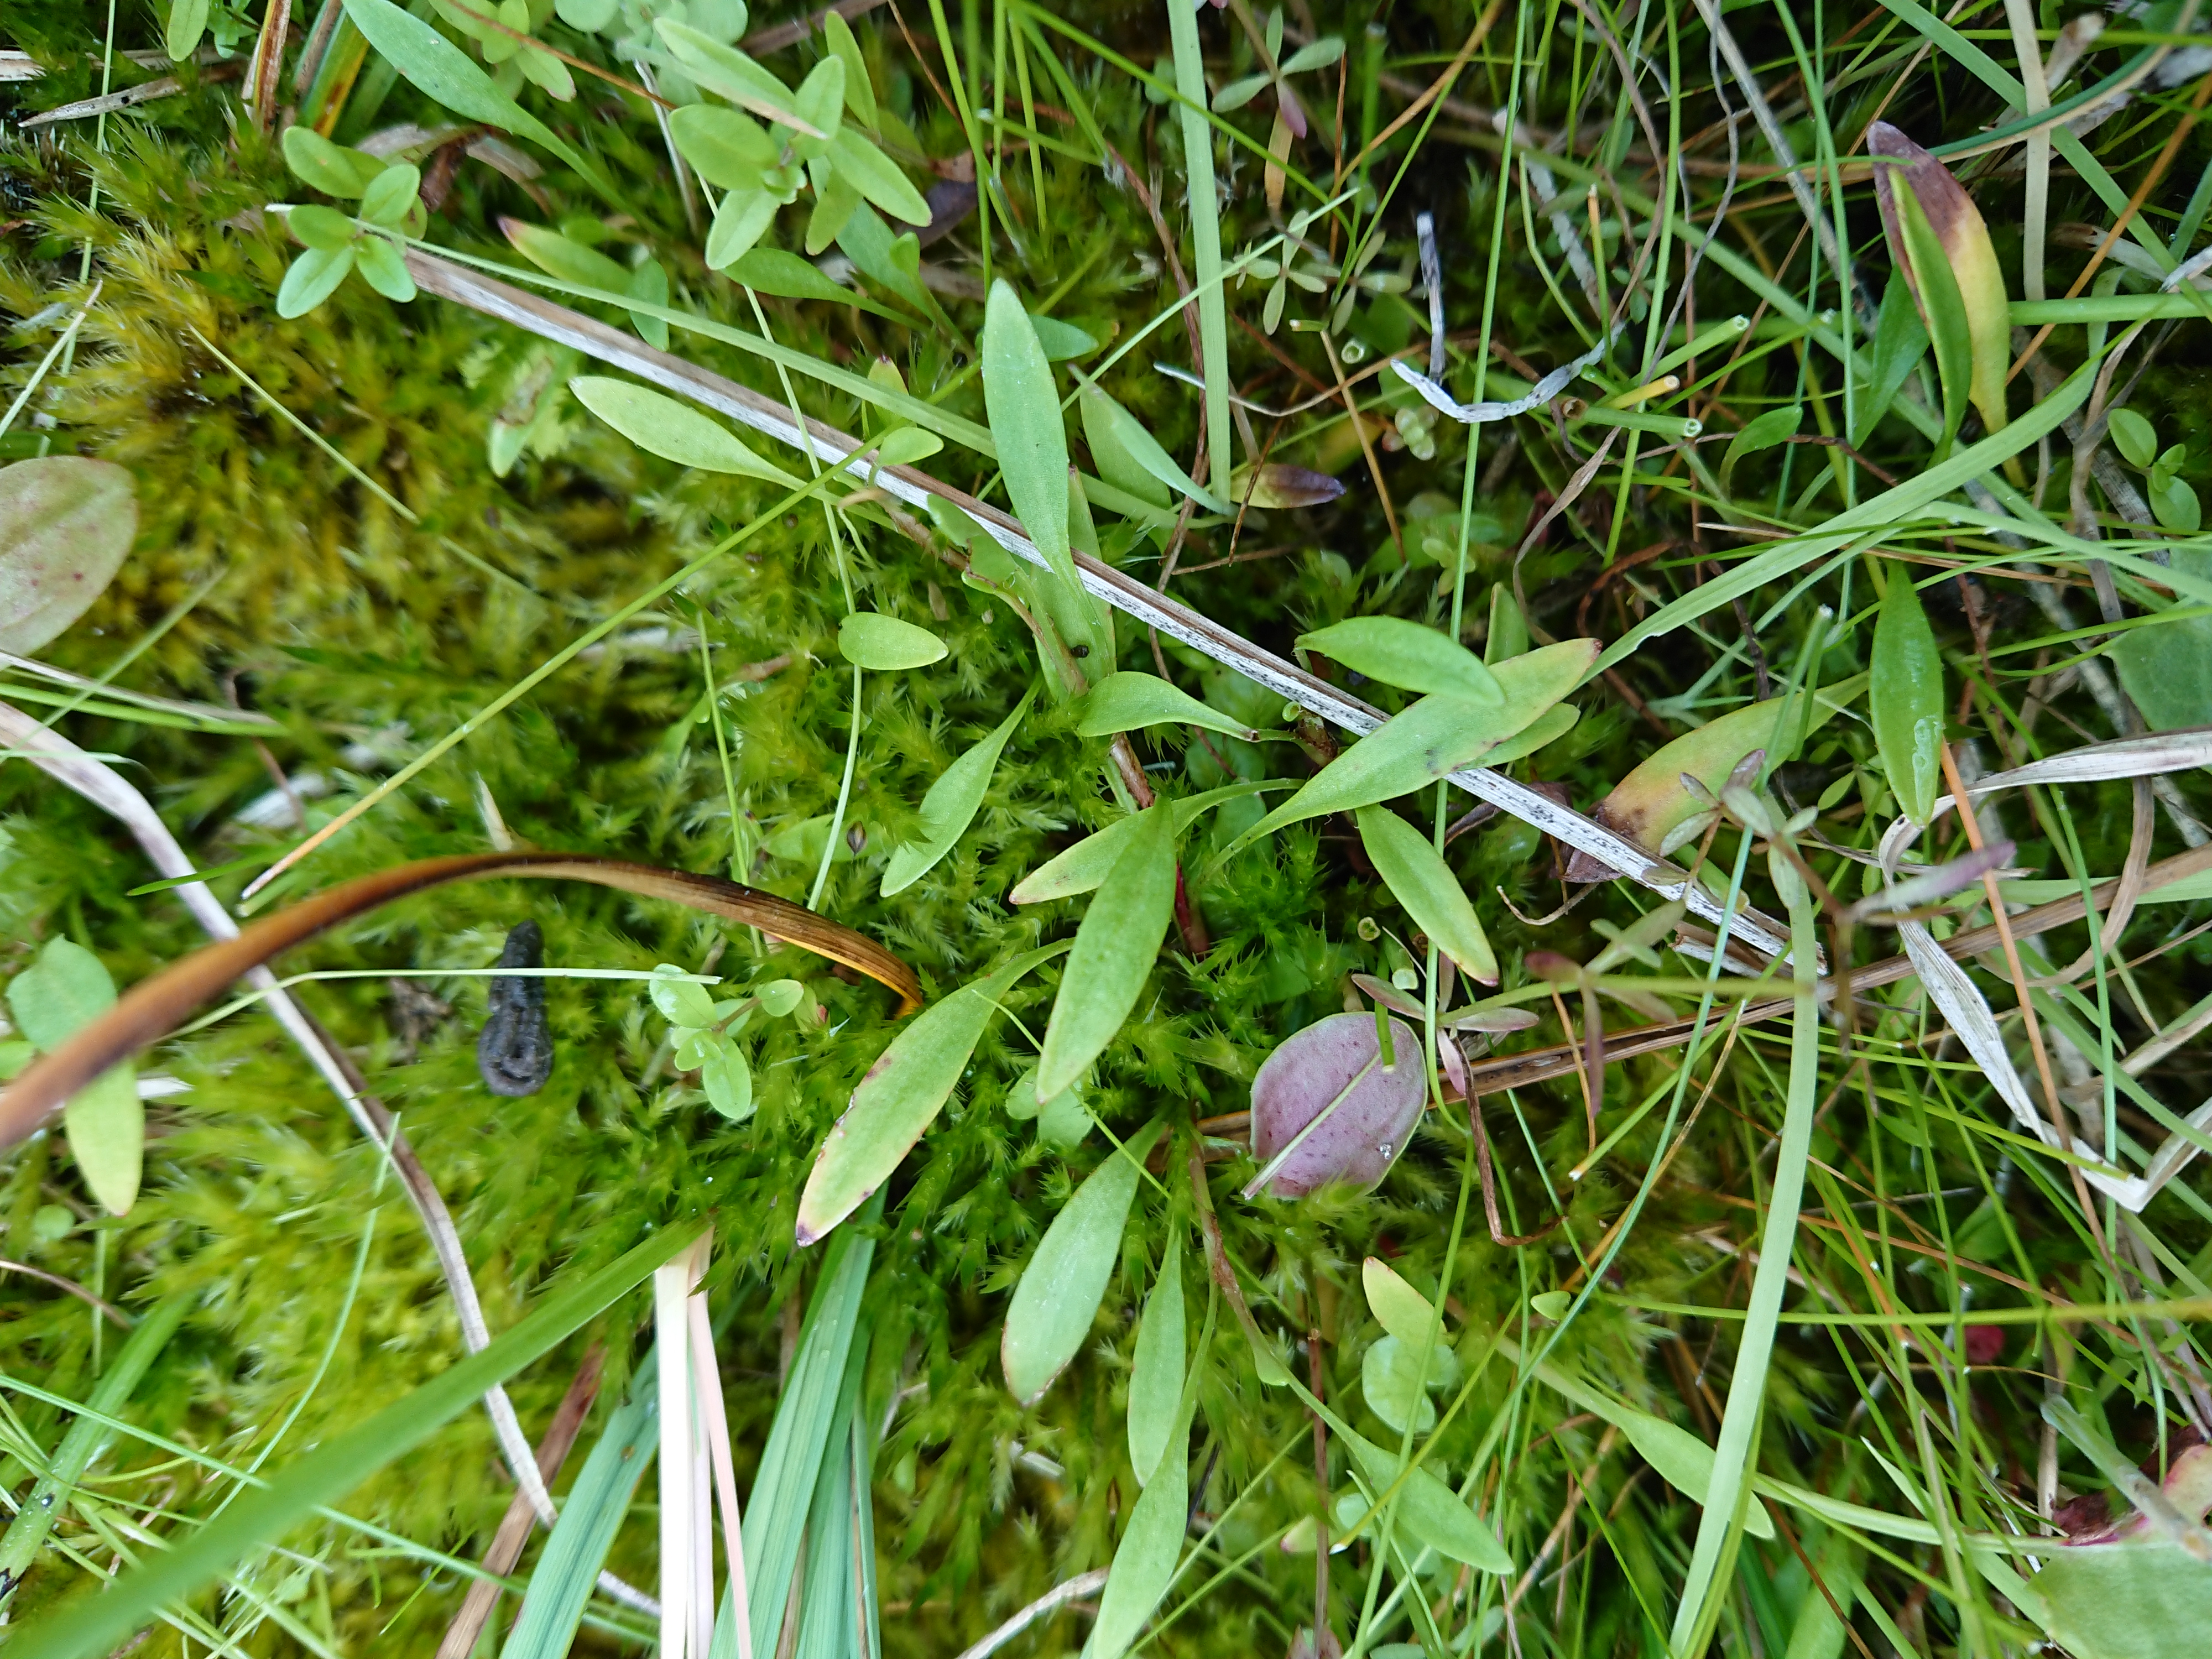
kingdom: Plantae
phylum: Tracheophyta
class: Magnoliopsida
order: Saxifragales
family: Saxifragaceae
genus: Saxifraga
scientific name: Saxifraga hirculus
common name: Gul stenbræk
